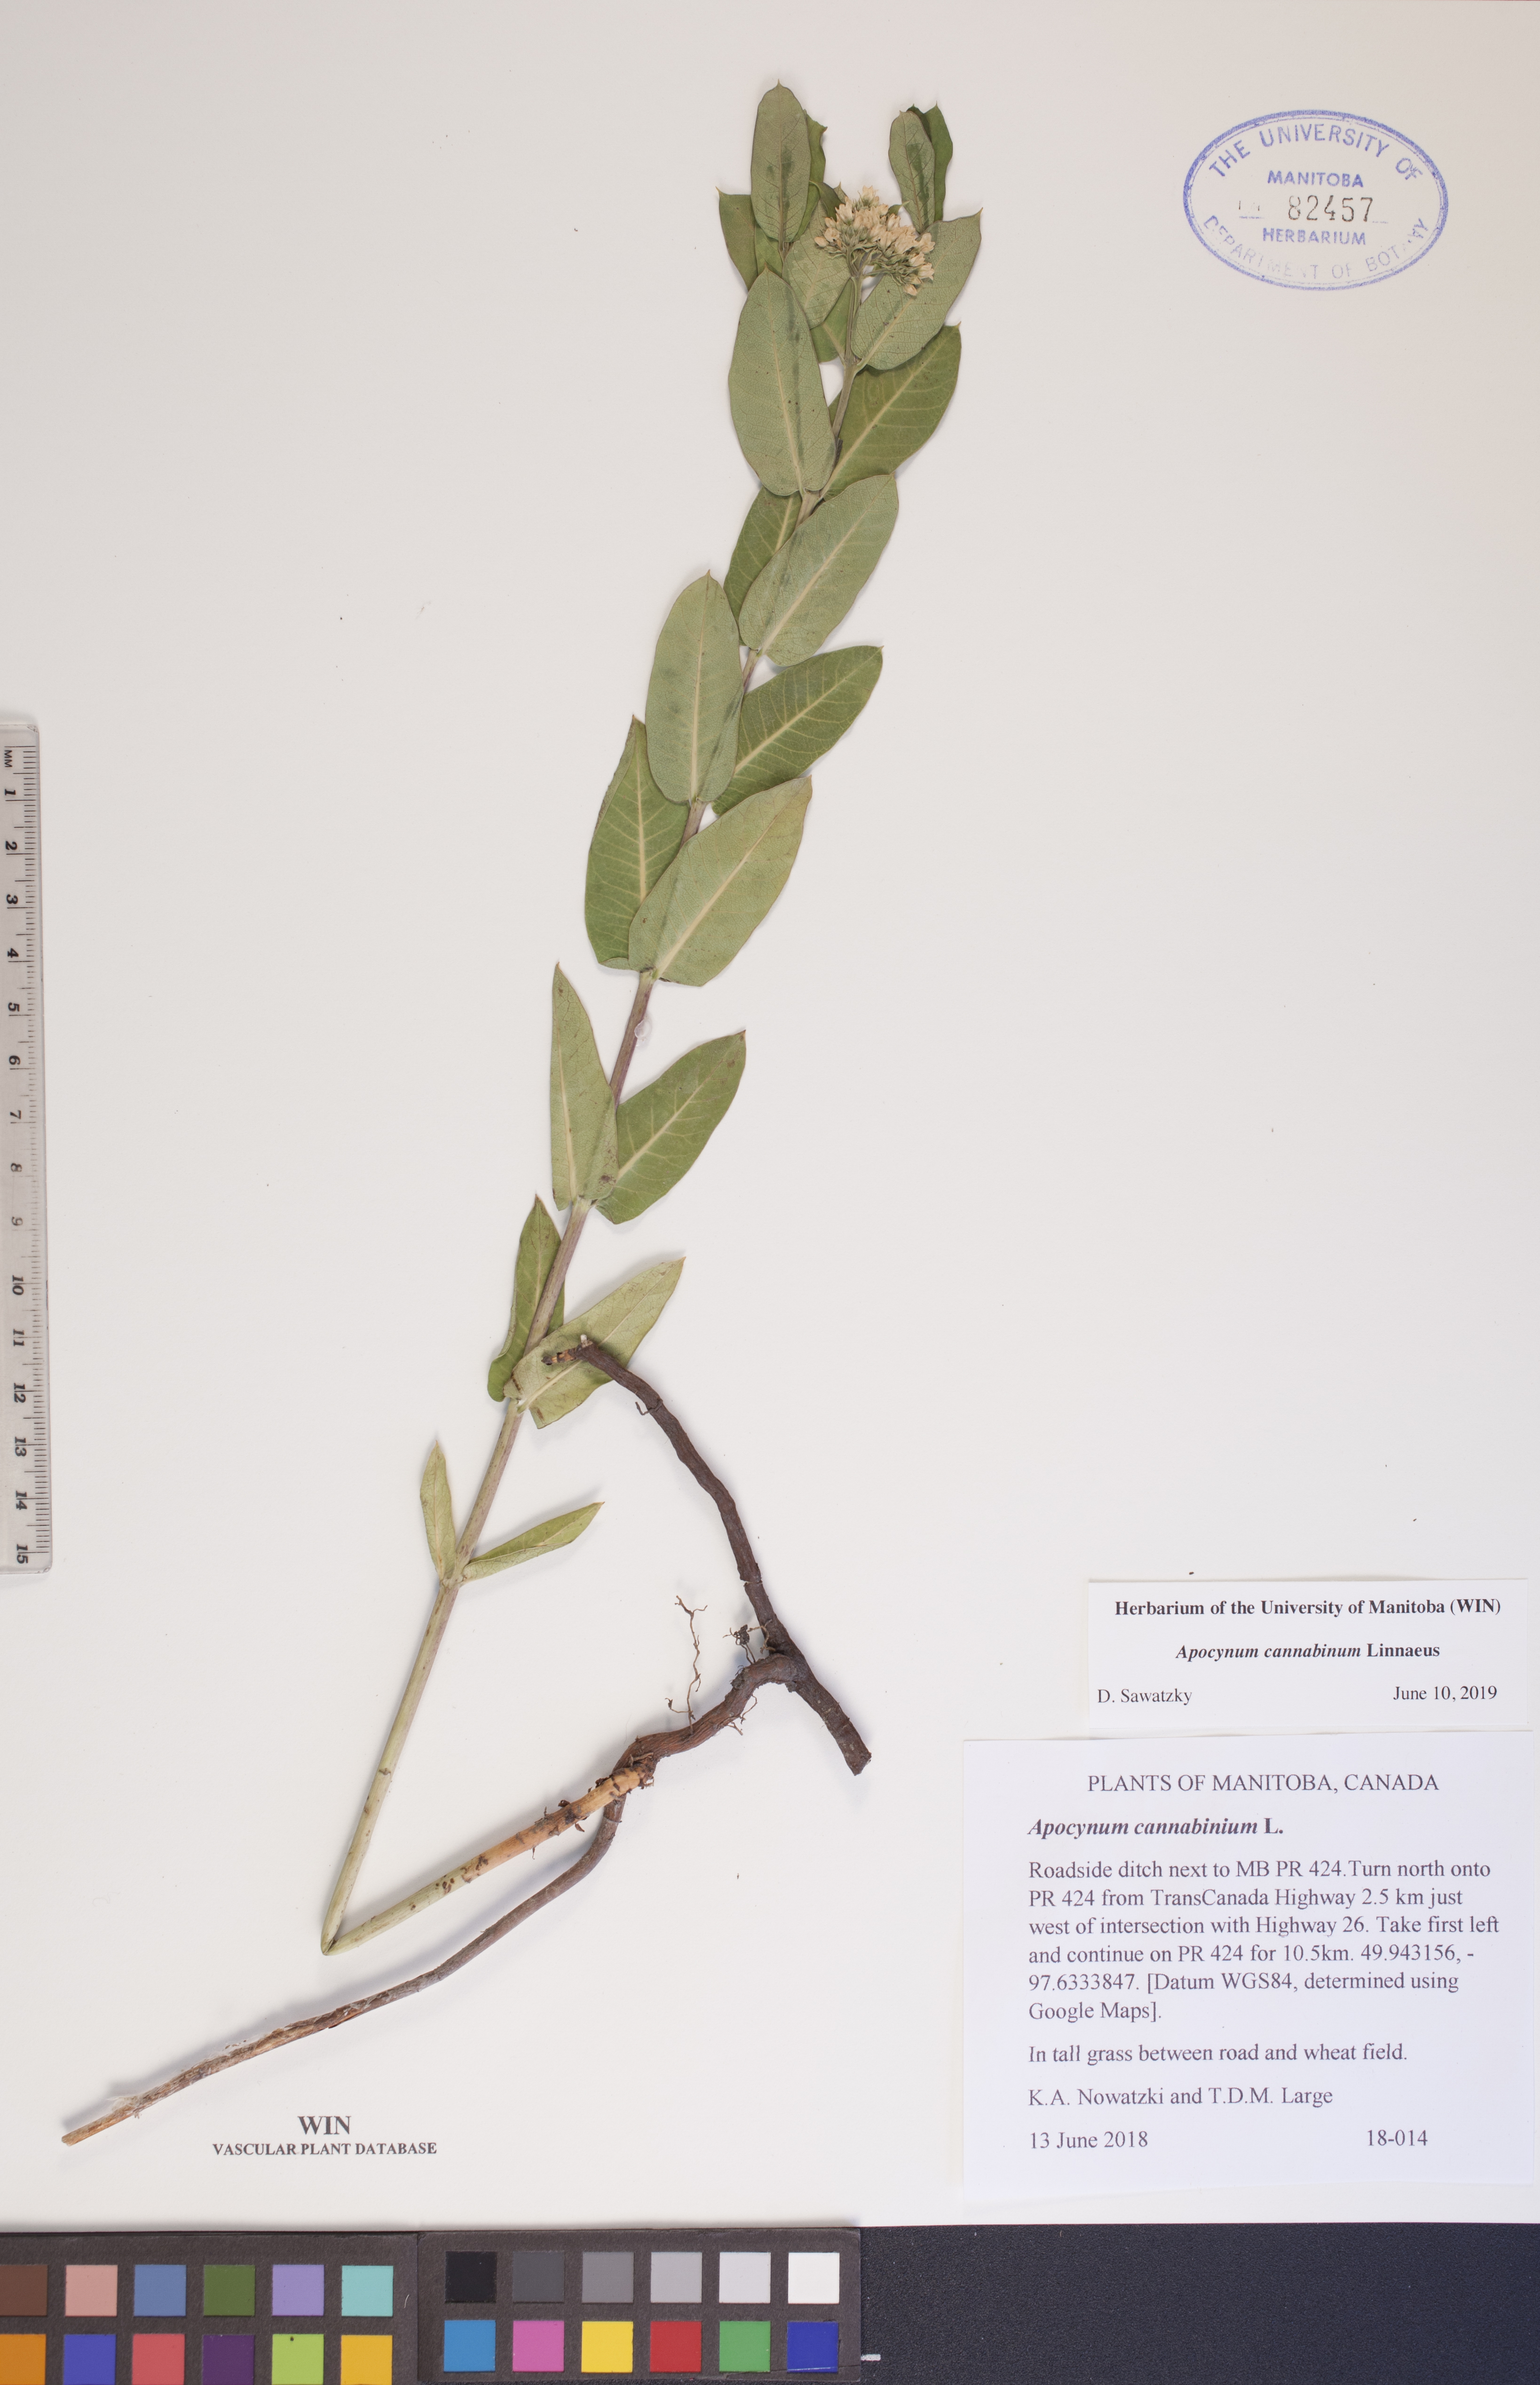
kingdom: Plantae
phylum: Tracheophyta
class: Magnoliopsida
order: Gentianales
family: Apocynaceae
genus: Apocynum
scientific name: Apocynum cannabinum
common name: Hemp dogbane
